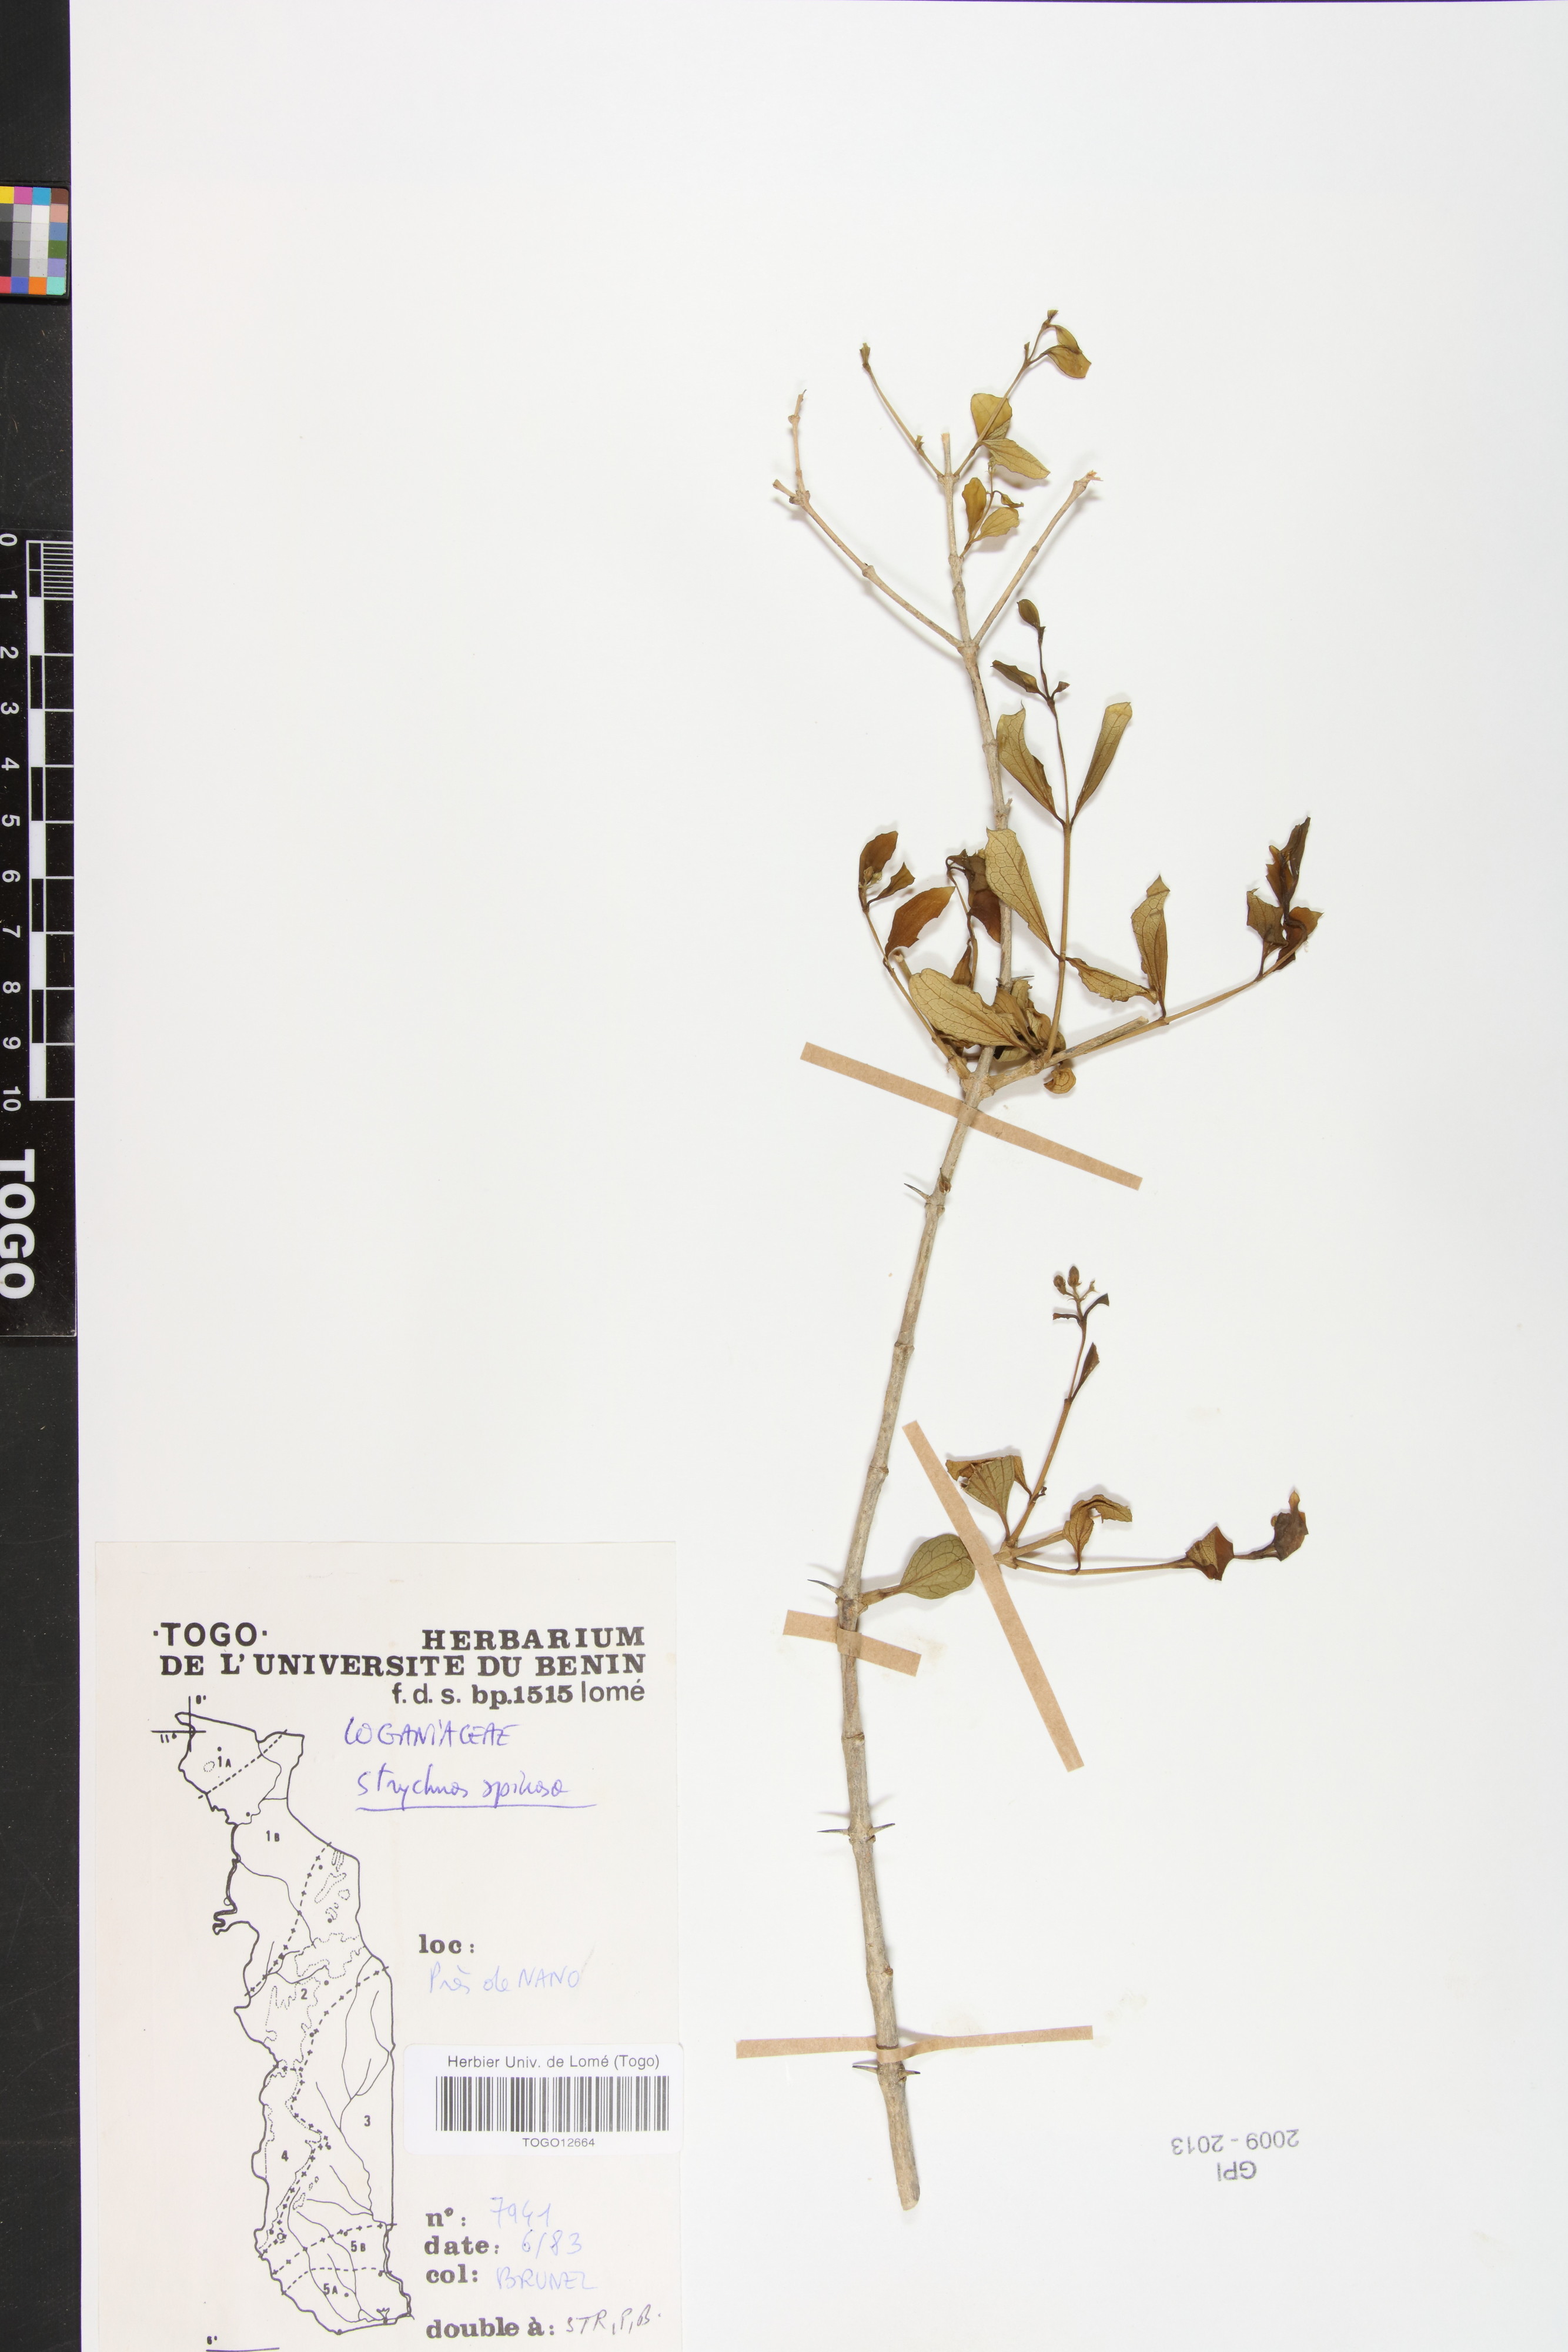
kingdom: Plantae
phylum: Tracheophyta
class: Magnoliopsida
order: Gentianales
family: Loganiaceae
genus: Strychnos
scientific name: Strychnos spinosa
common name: Natal orange
